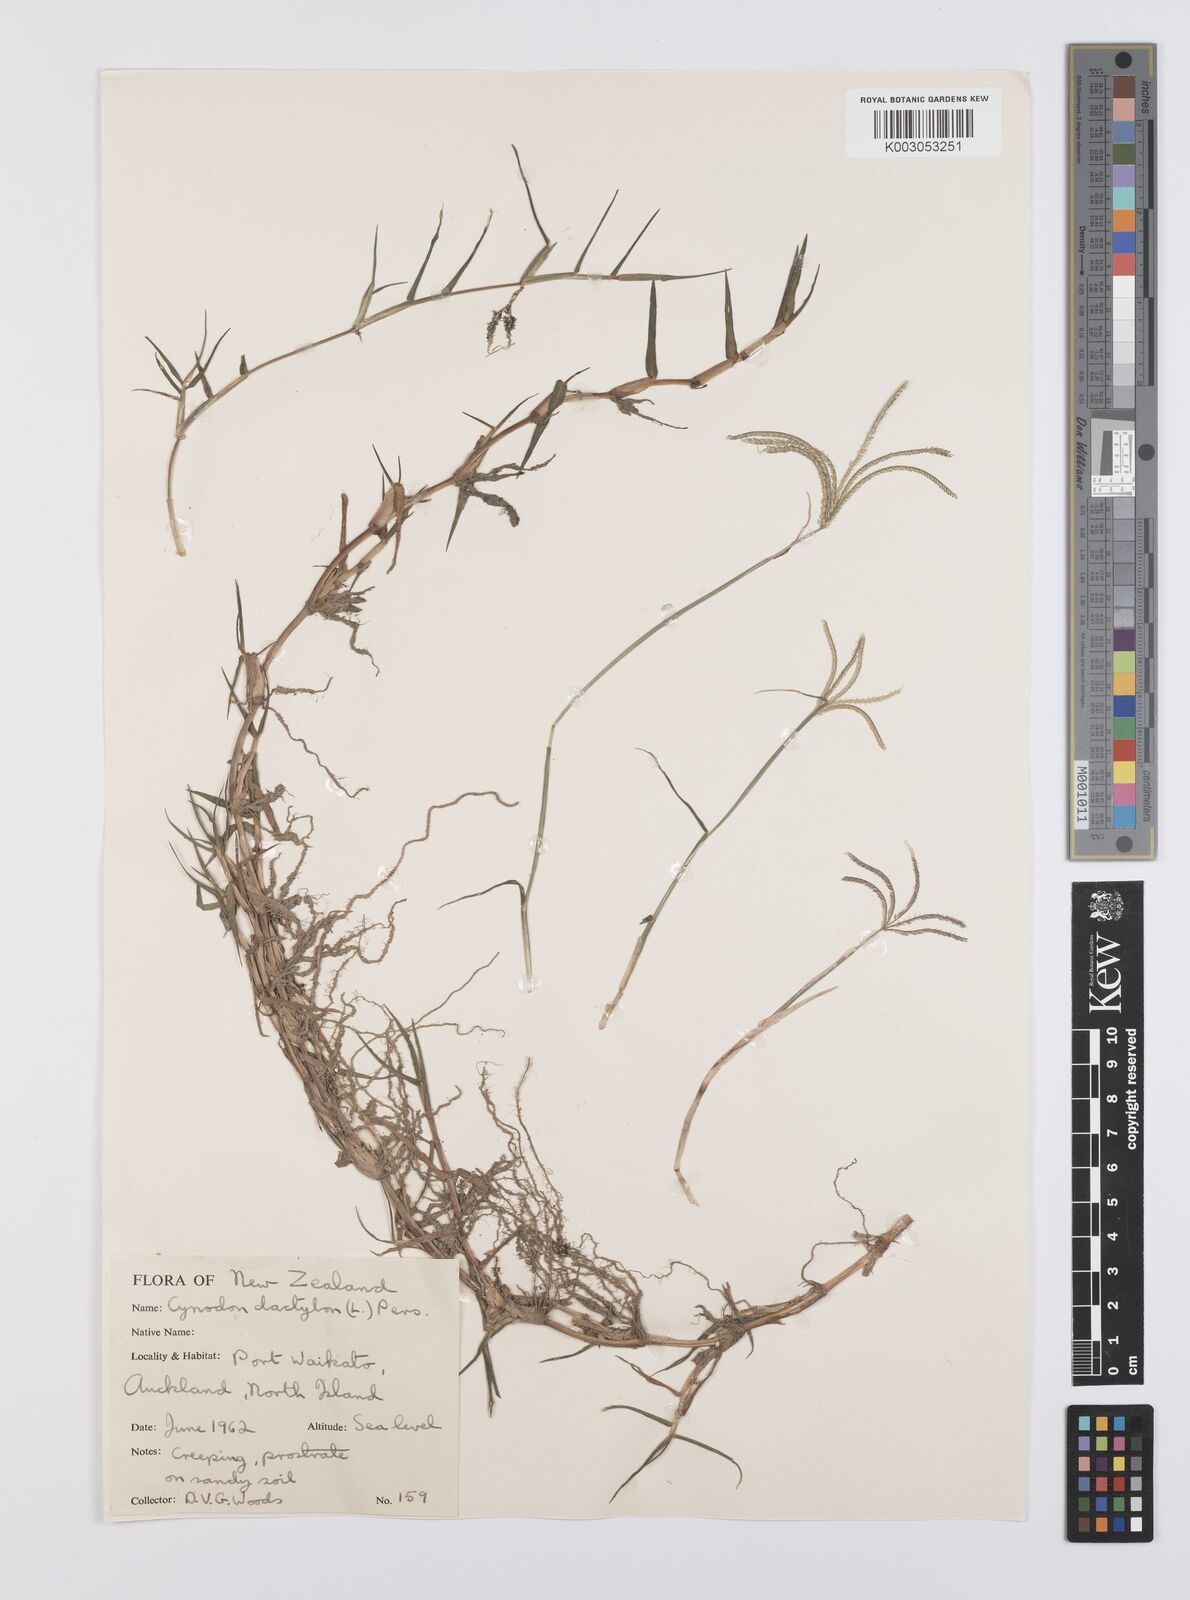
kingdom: Plantae
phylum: Tracheophyta
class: Liliopsida
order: Poales
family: Poaceae
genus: Cynodon
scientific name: Cynodon dactylon
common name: Bermuda grass
